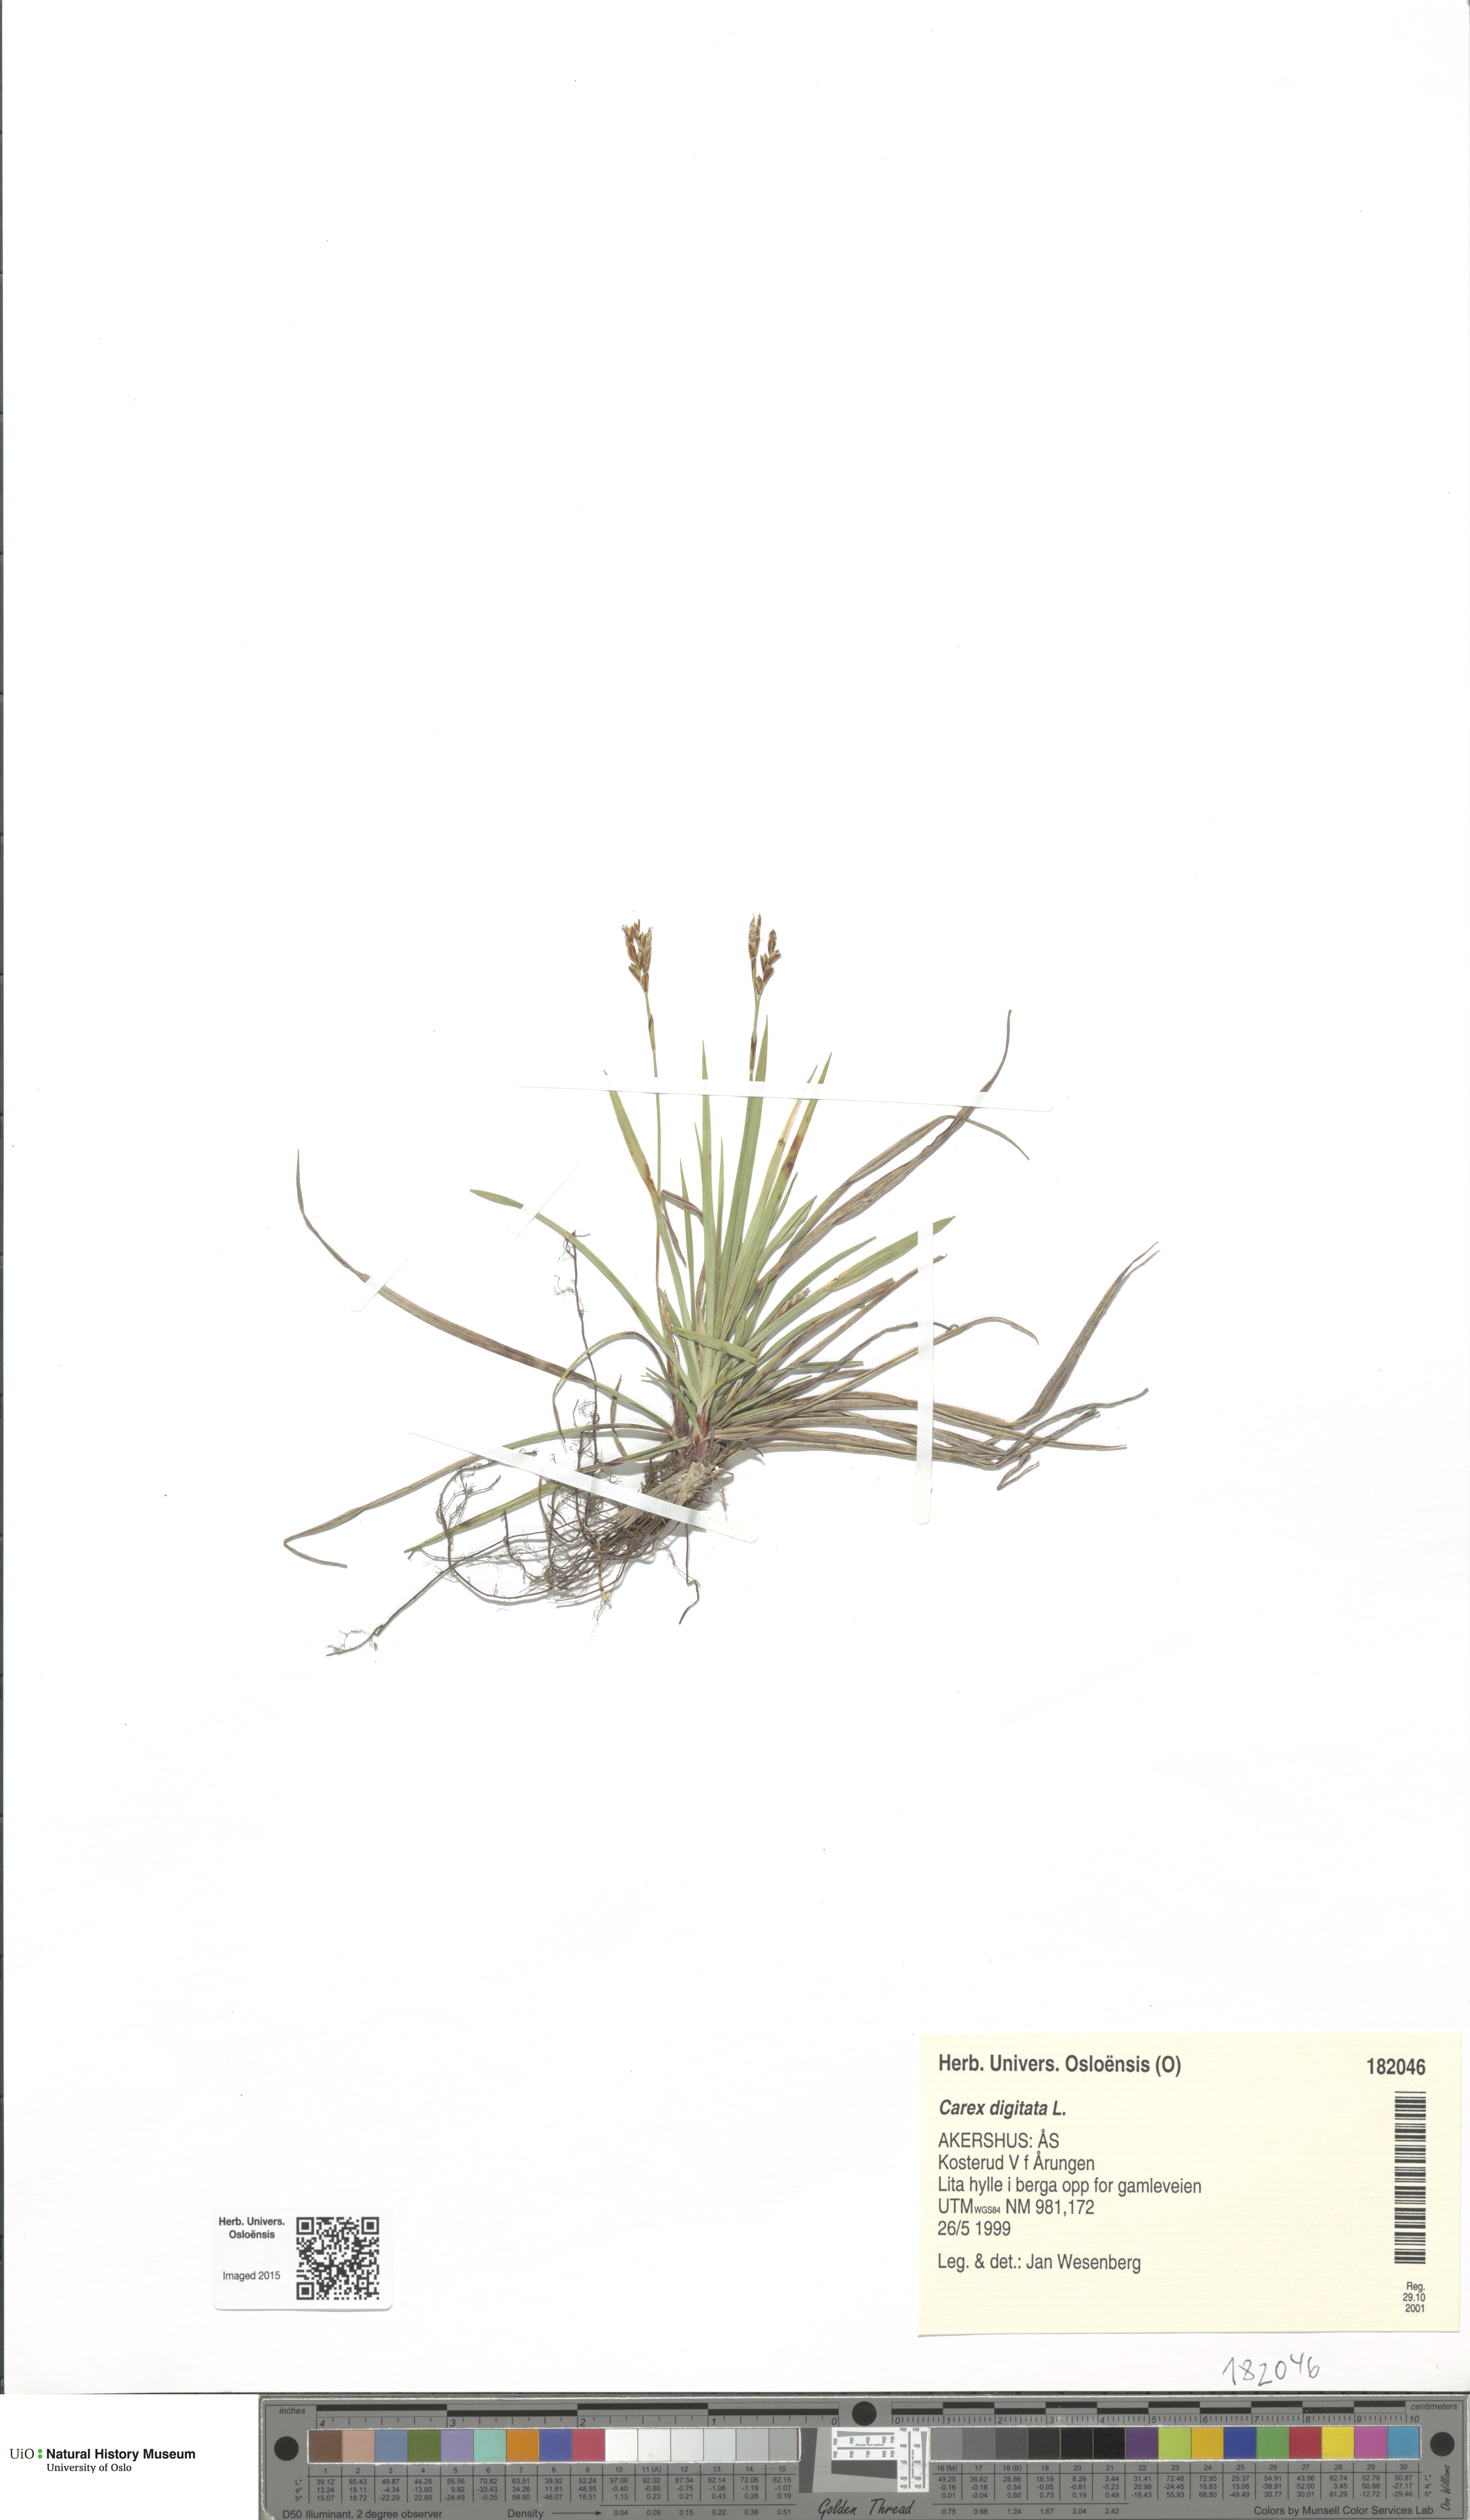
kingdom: Plantae
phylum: Tracheophyta
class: Liliopsida
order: Poales
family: Cyperaceae
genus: Carex
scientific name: Carex digitata
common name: Fingered sedge
